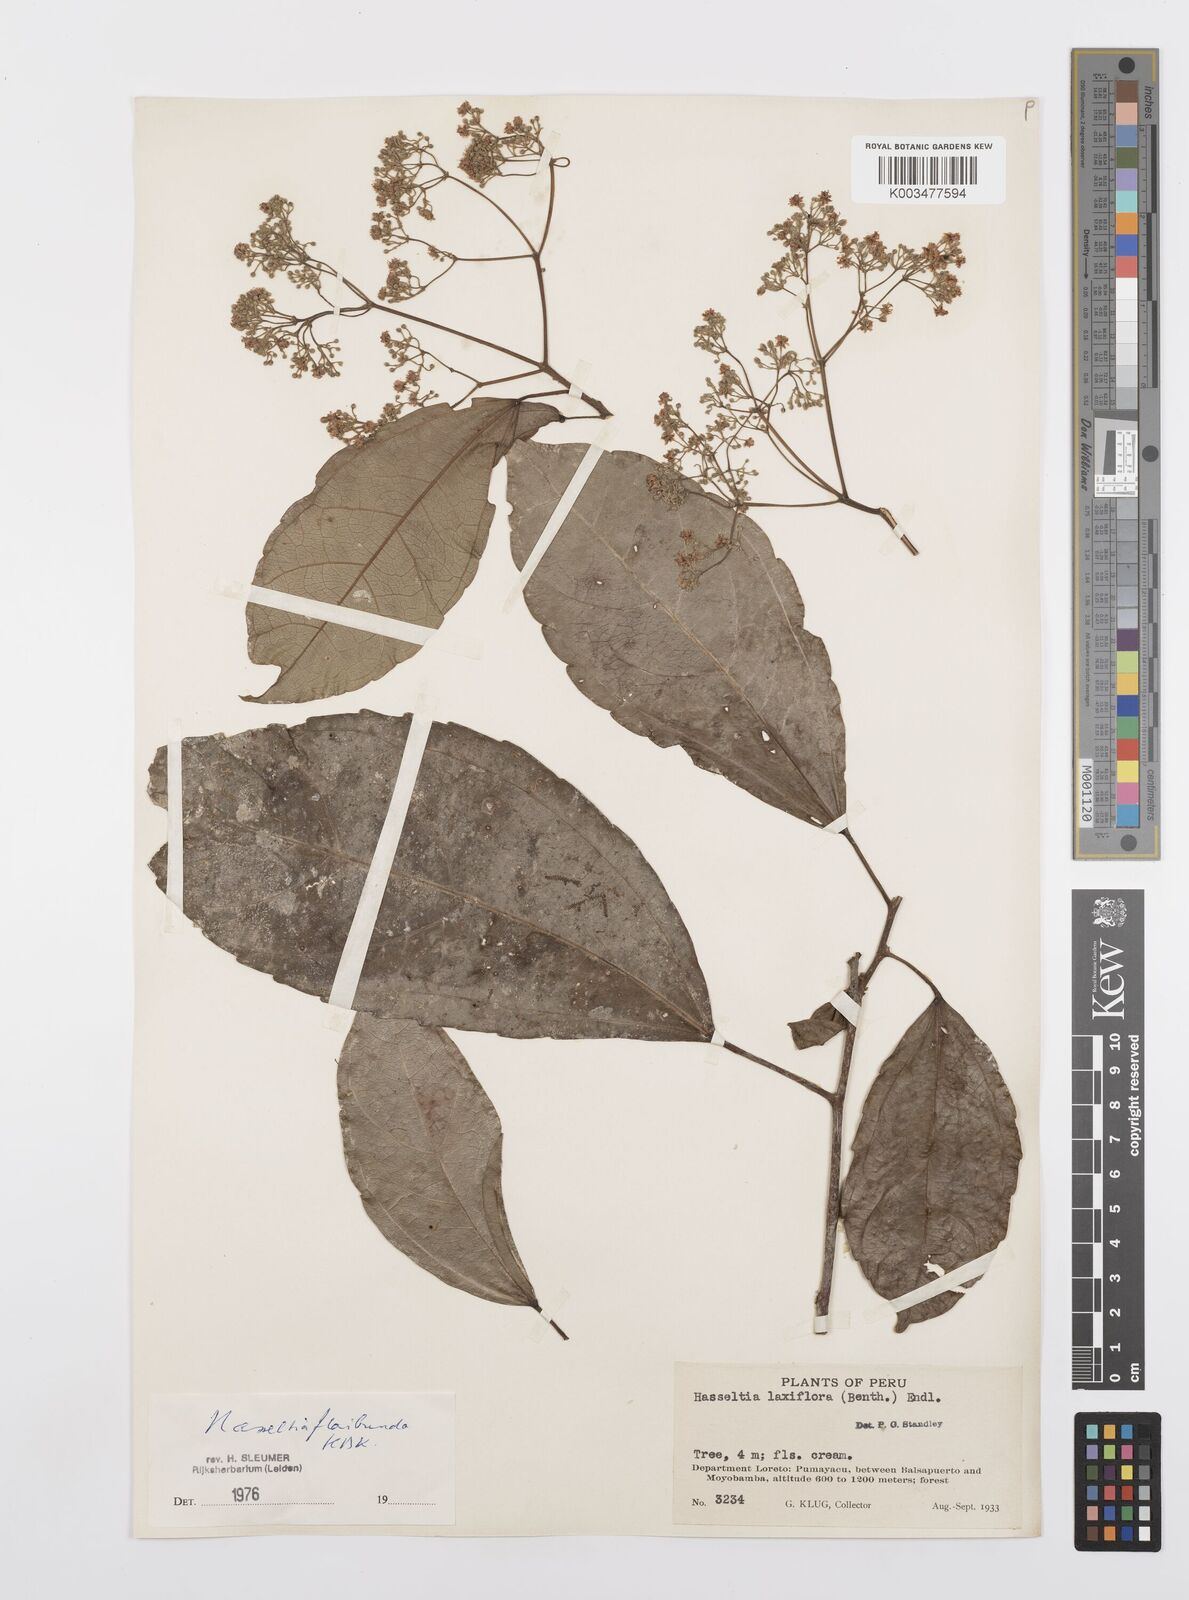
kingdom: Plantae
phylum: Tracheophyta
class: Magnoliopsida
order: Malpighiales
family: Salicaceae
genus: Hasseltia
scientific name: Hasseltia floribunda
